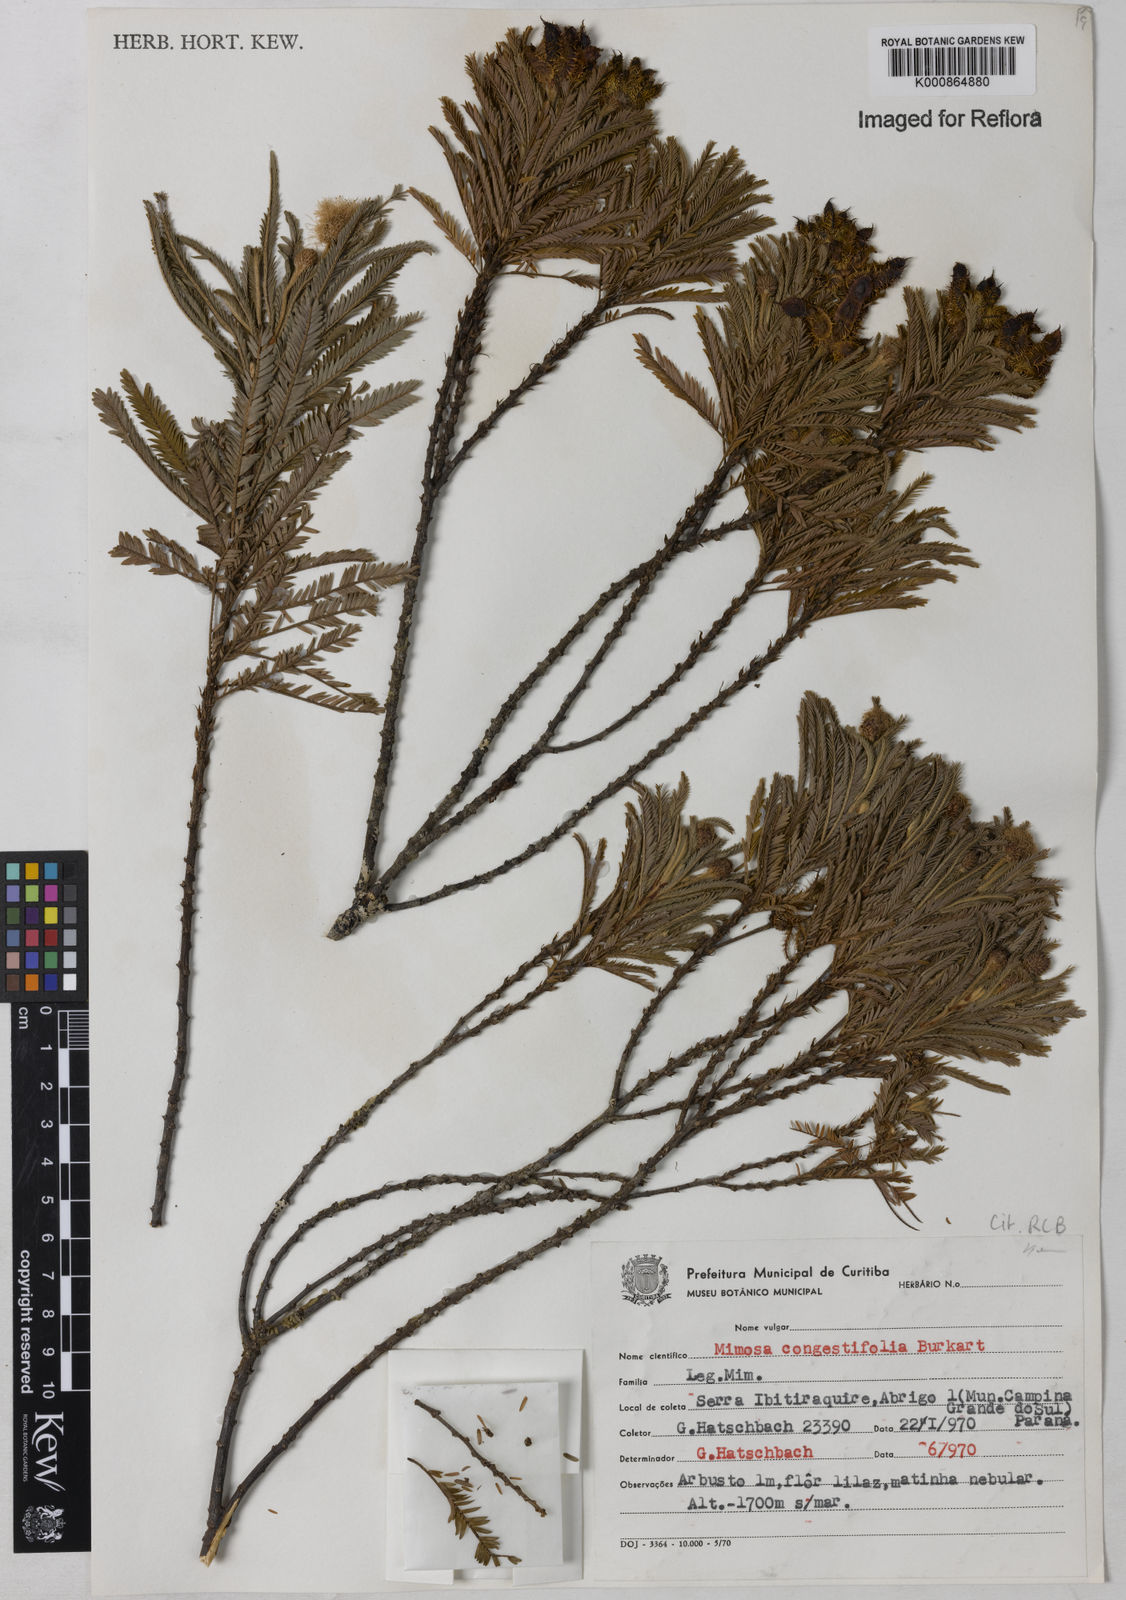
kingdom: Plantae
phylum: Tracheophyta
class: Magnoliopsida
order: Fabales
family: Fabaceae
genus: Mimosa
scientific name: Mimosa congestifolia
